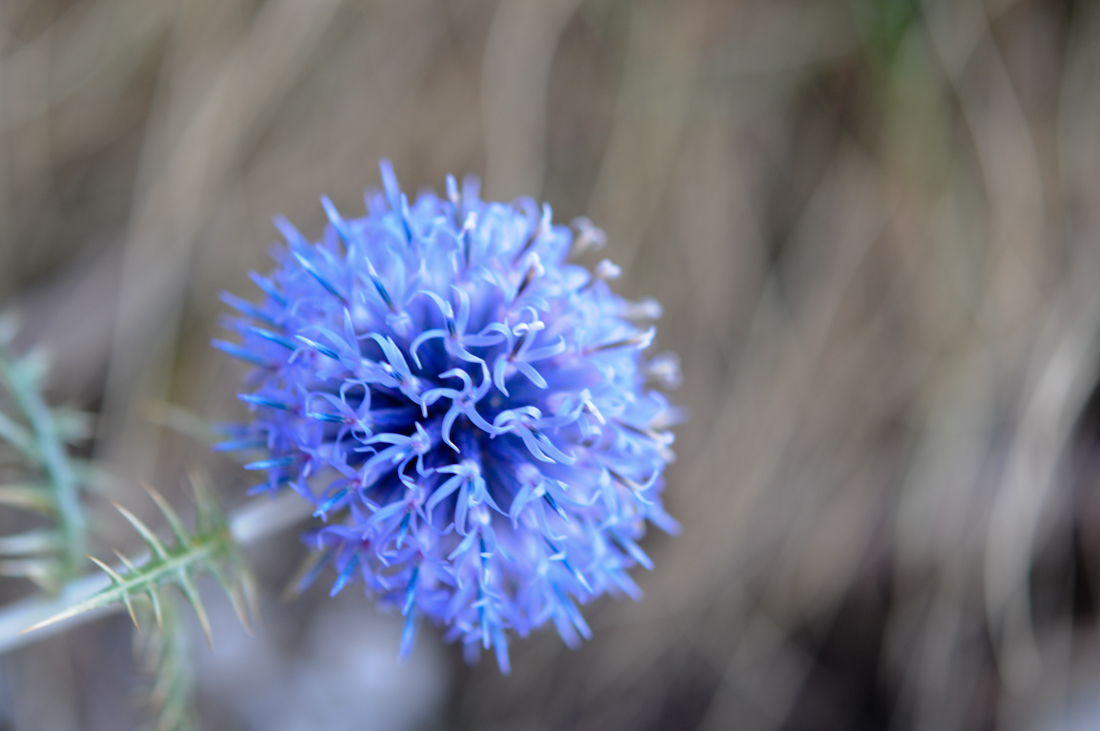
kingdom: Plantae
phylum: Tracheophyta
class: Magnoliopsida
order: Asterales
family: Asteraceae
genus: Echinops
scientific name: Echinops ritro
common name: Globe thistle
